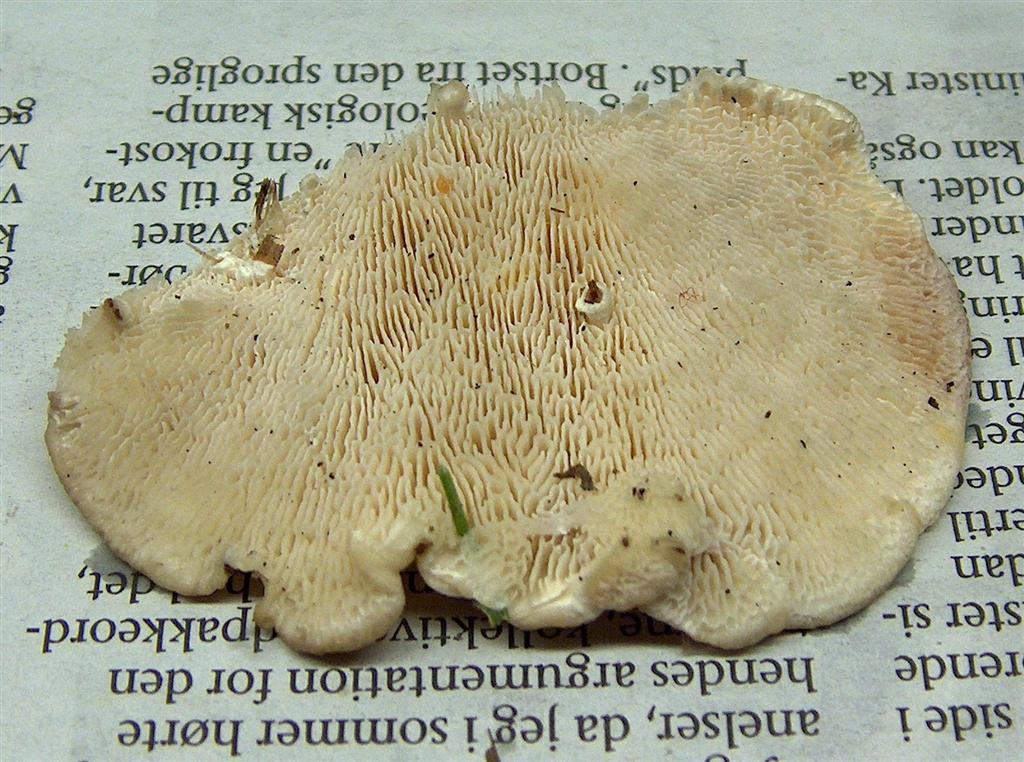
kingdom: Fungi
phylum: Basidiomycota
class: Agaricomycetes
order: Polyporales
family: Polyporaceae
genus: Lenzites
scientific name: Lenzites betulinus
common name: birke-læderporesvamp
